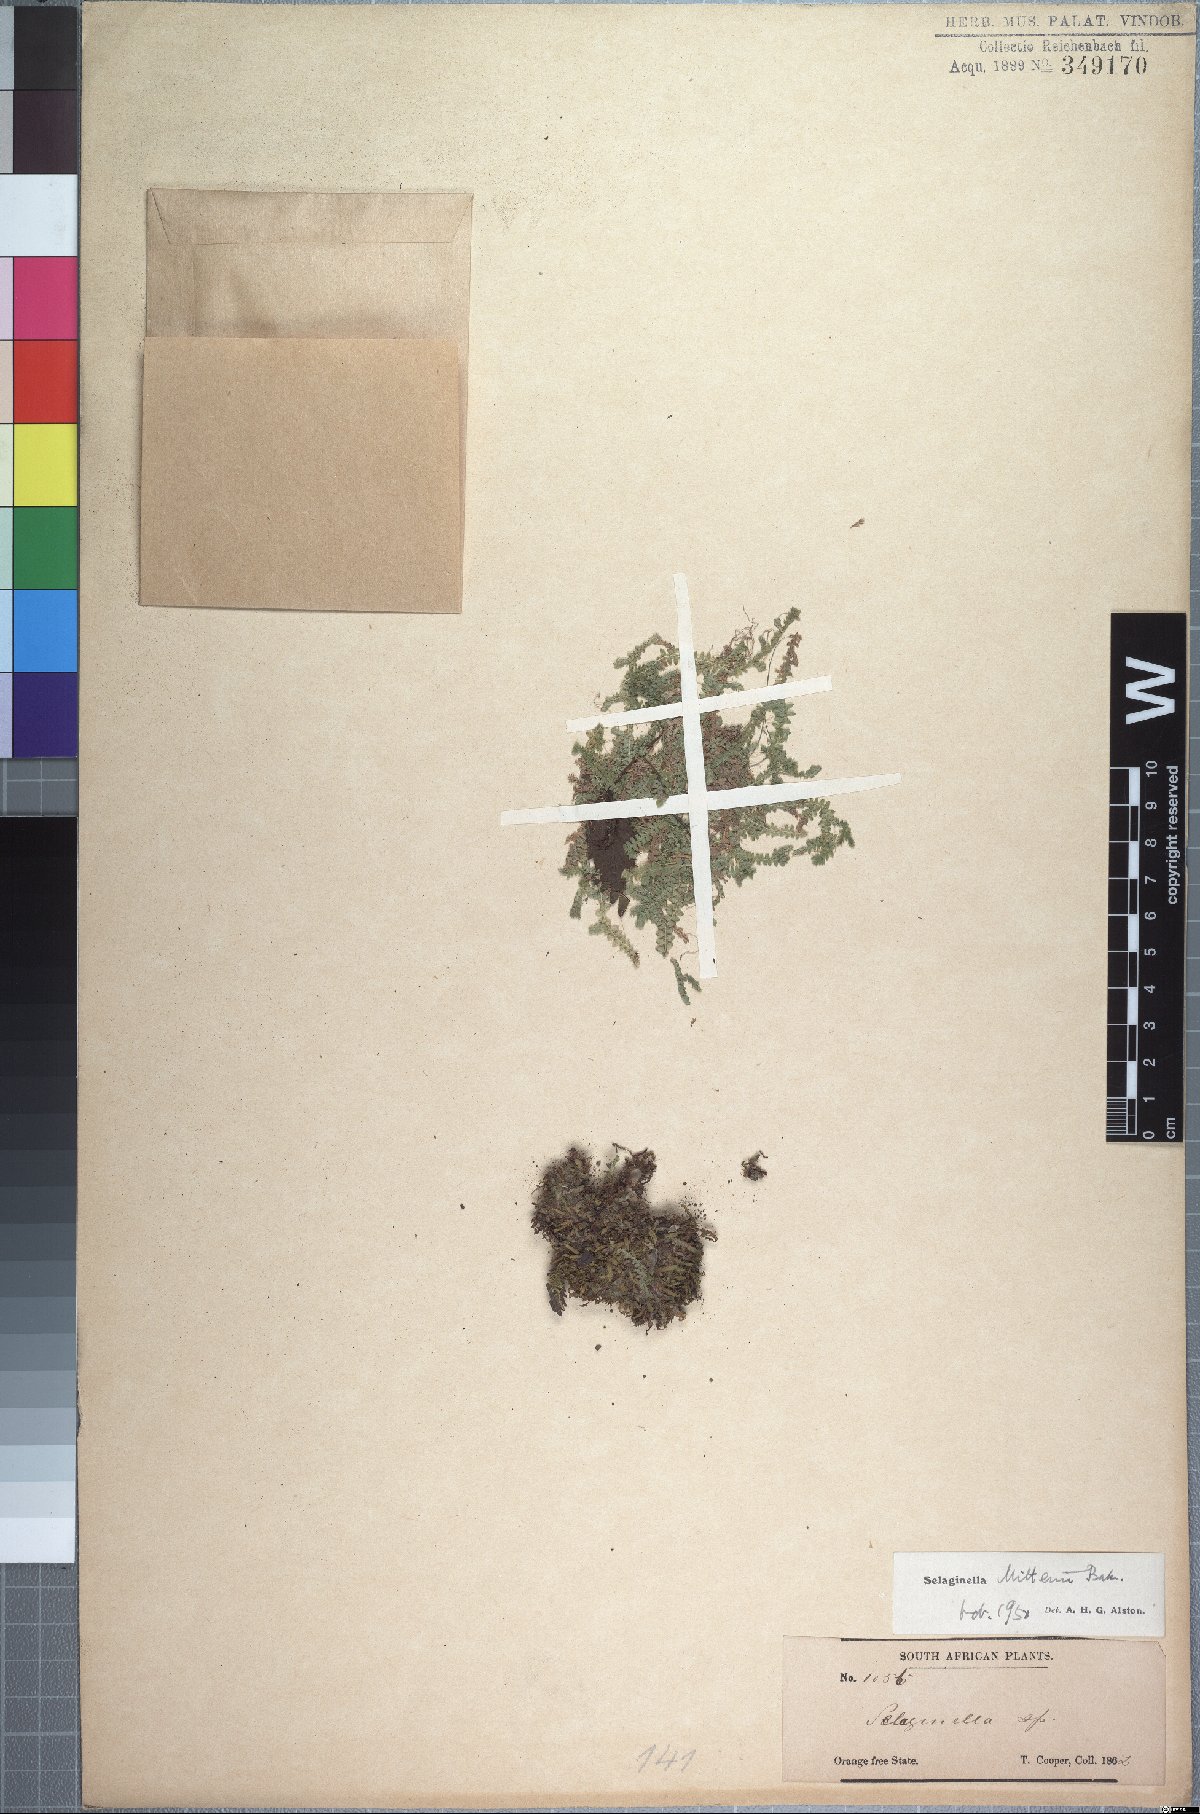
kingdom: Plantae
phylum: Tracheophyta
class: Lycopodiopsida
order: Selaginellales
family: Selaginellaceae
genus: Selaginella
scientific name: Selaginella mittenii
